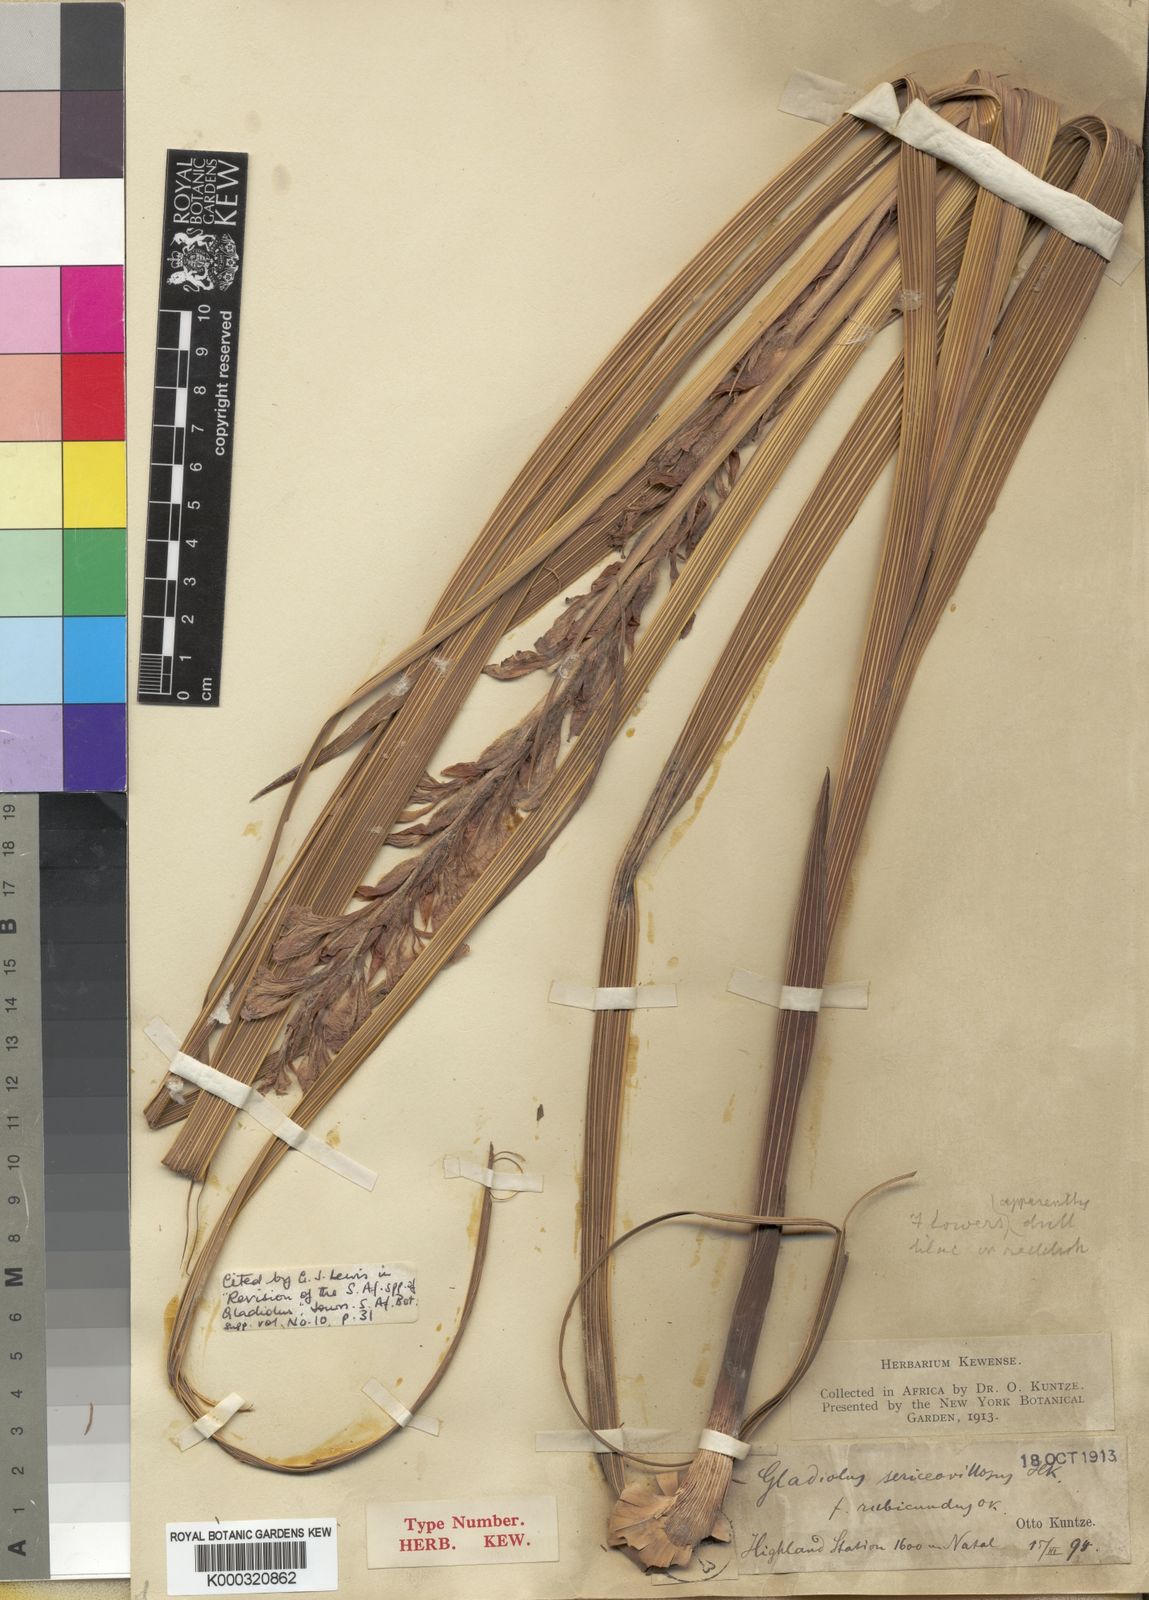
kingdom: Plantae
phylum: Tracheophyta
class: Liliopsida
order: Asparagales
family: Iridaceae
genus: Gladiolus
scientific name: Gladiolus sericeovillosus
